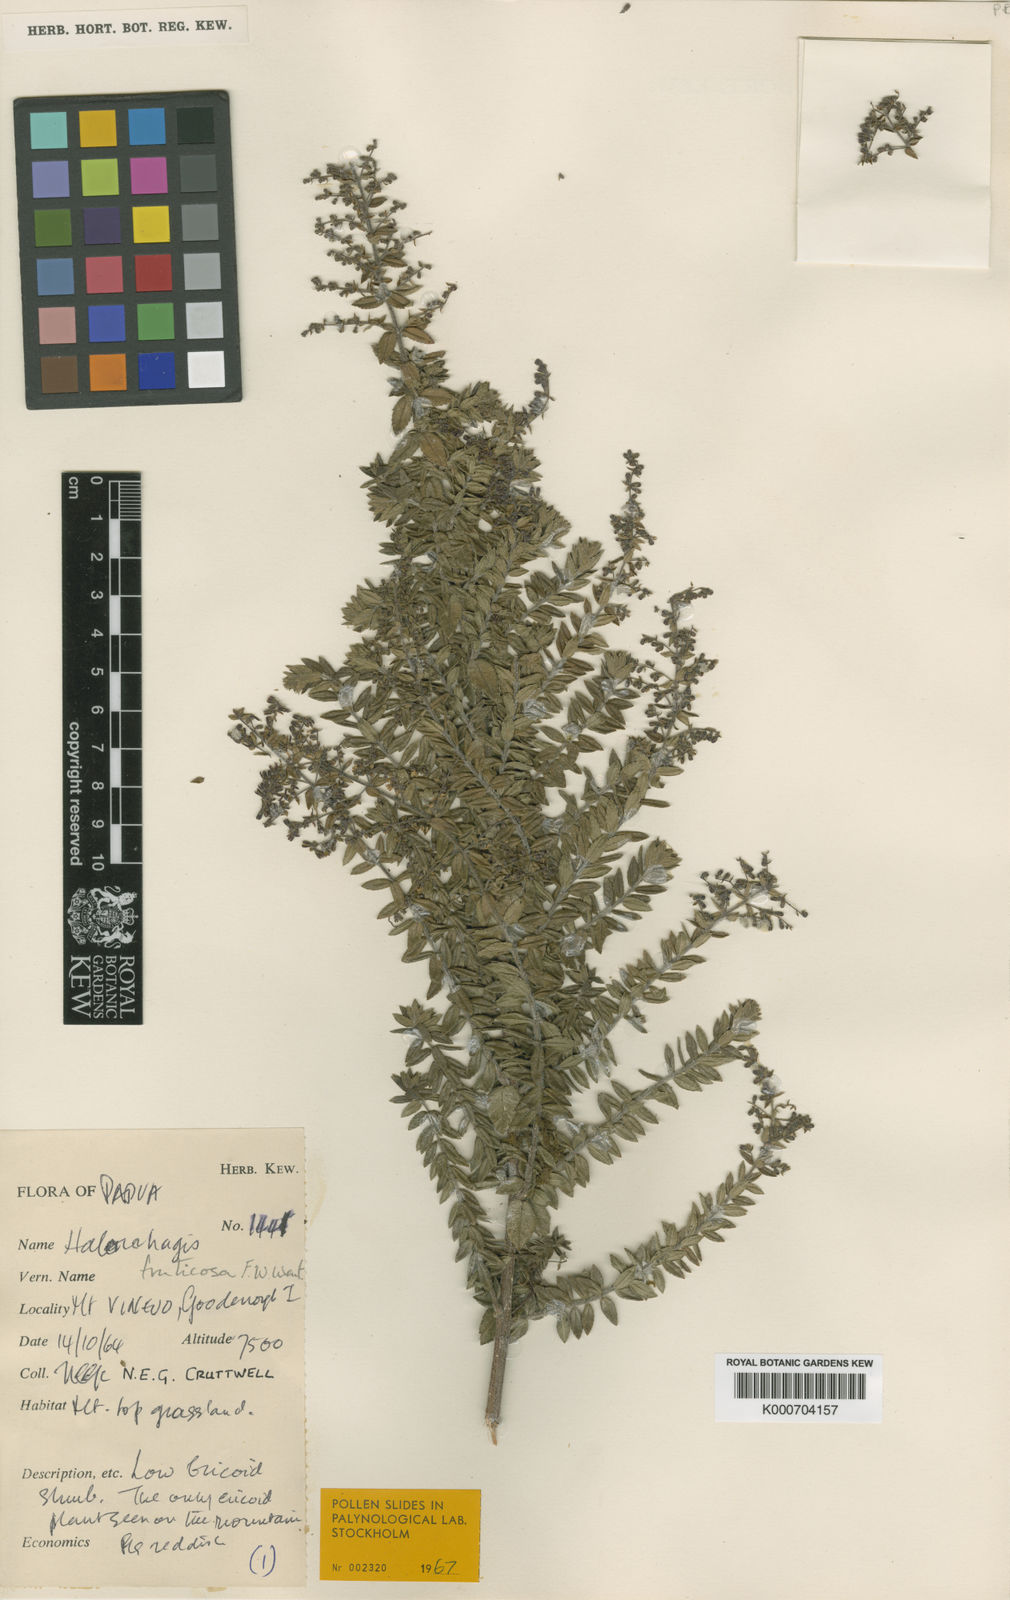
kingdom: Plantae
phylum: Tracheophyta
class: Magnoliopsida
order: Saxifragales
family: Haloragaceae
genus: Gonocarpus
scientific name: Gonocarpus halconensis
